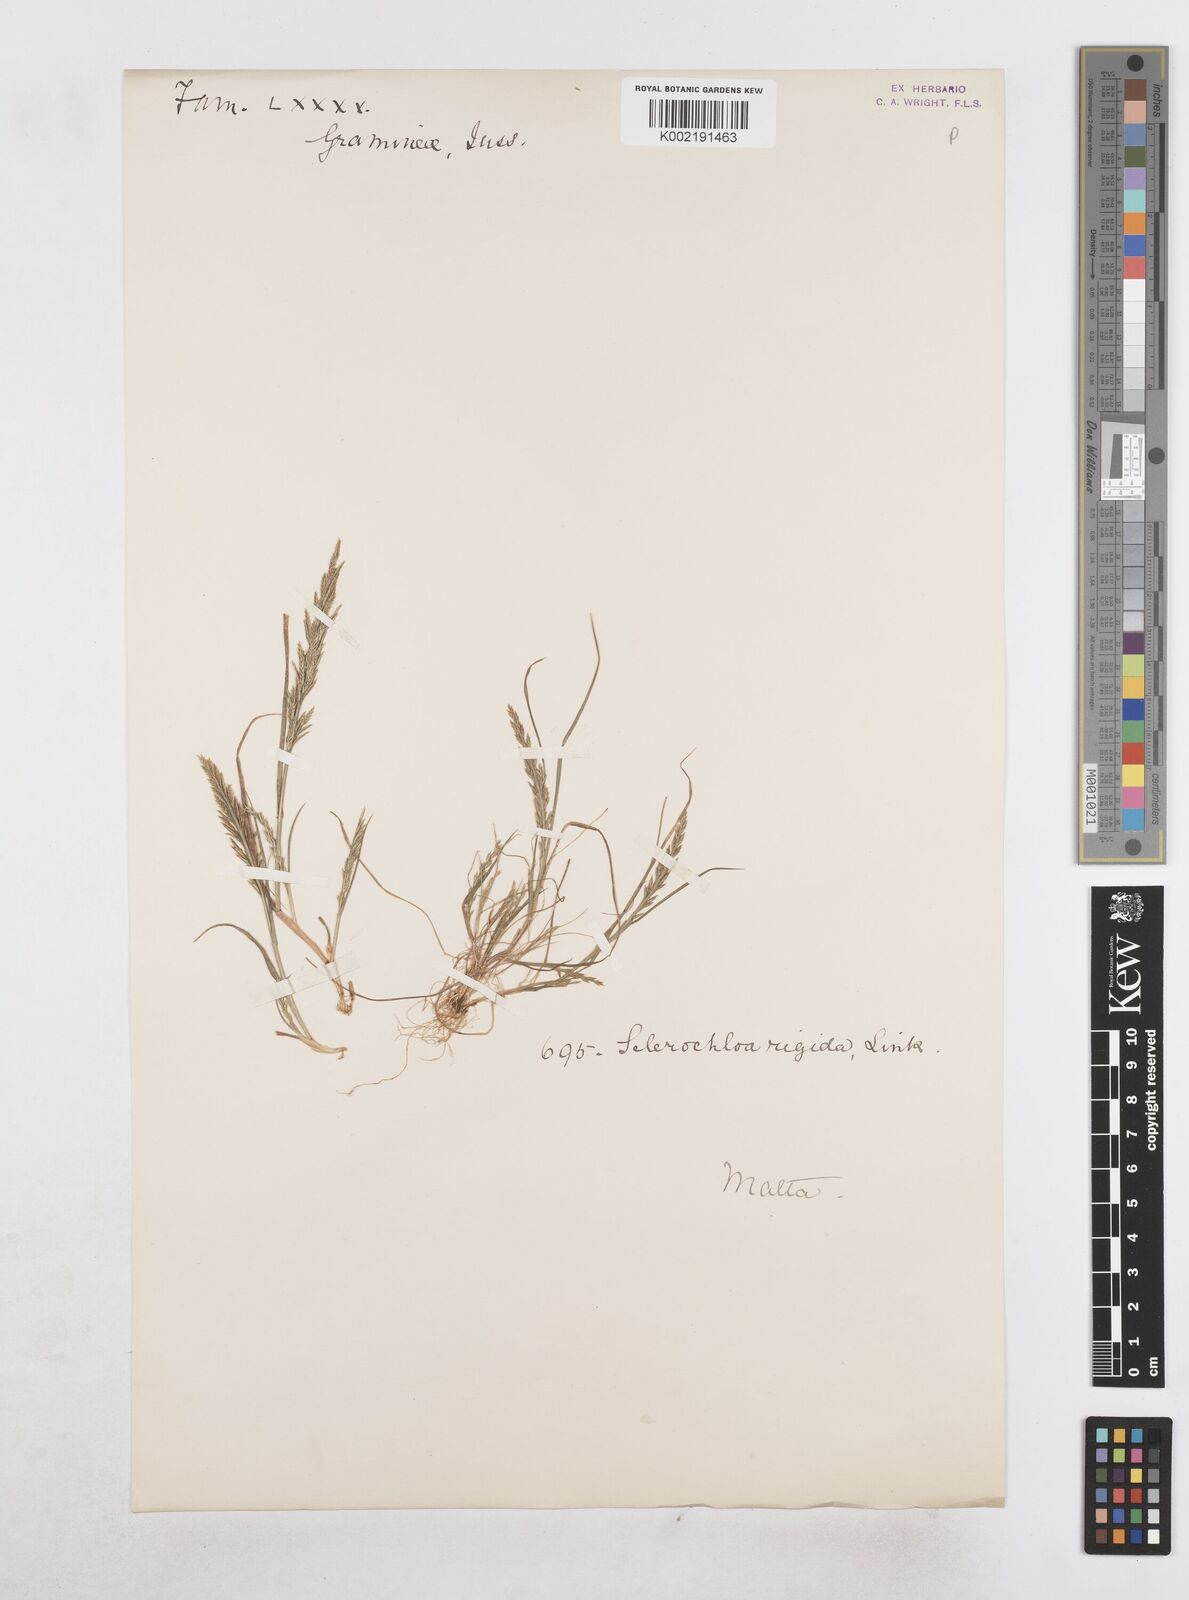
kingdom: Plantae
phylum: Tracheophyta
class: Liliopsida
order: Poales
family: Poaceae
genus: Catapodium
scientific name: Catapodium rigidum
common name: Fern-grass
